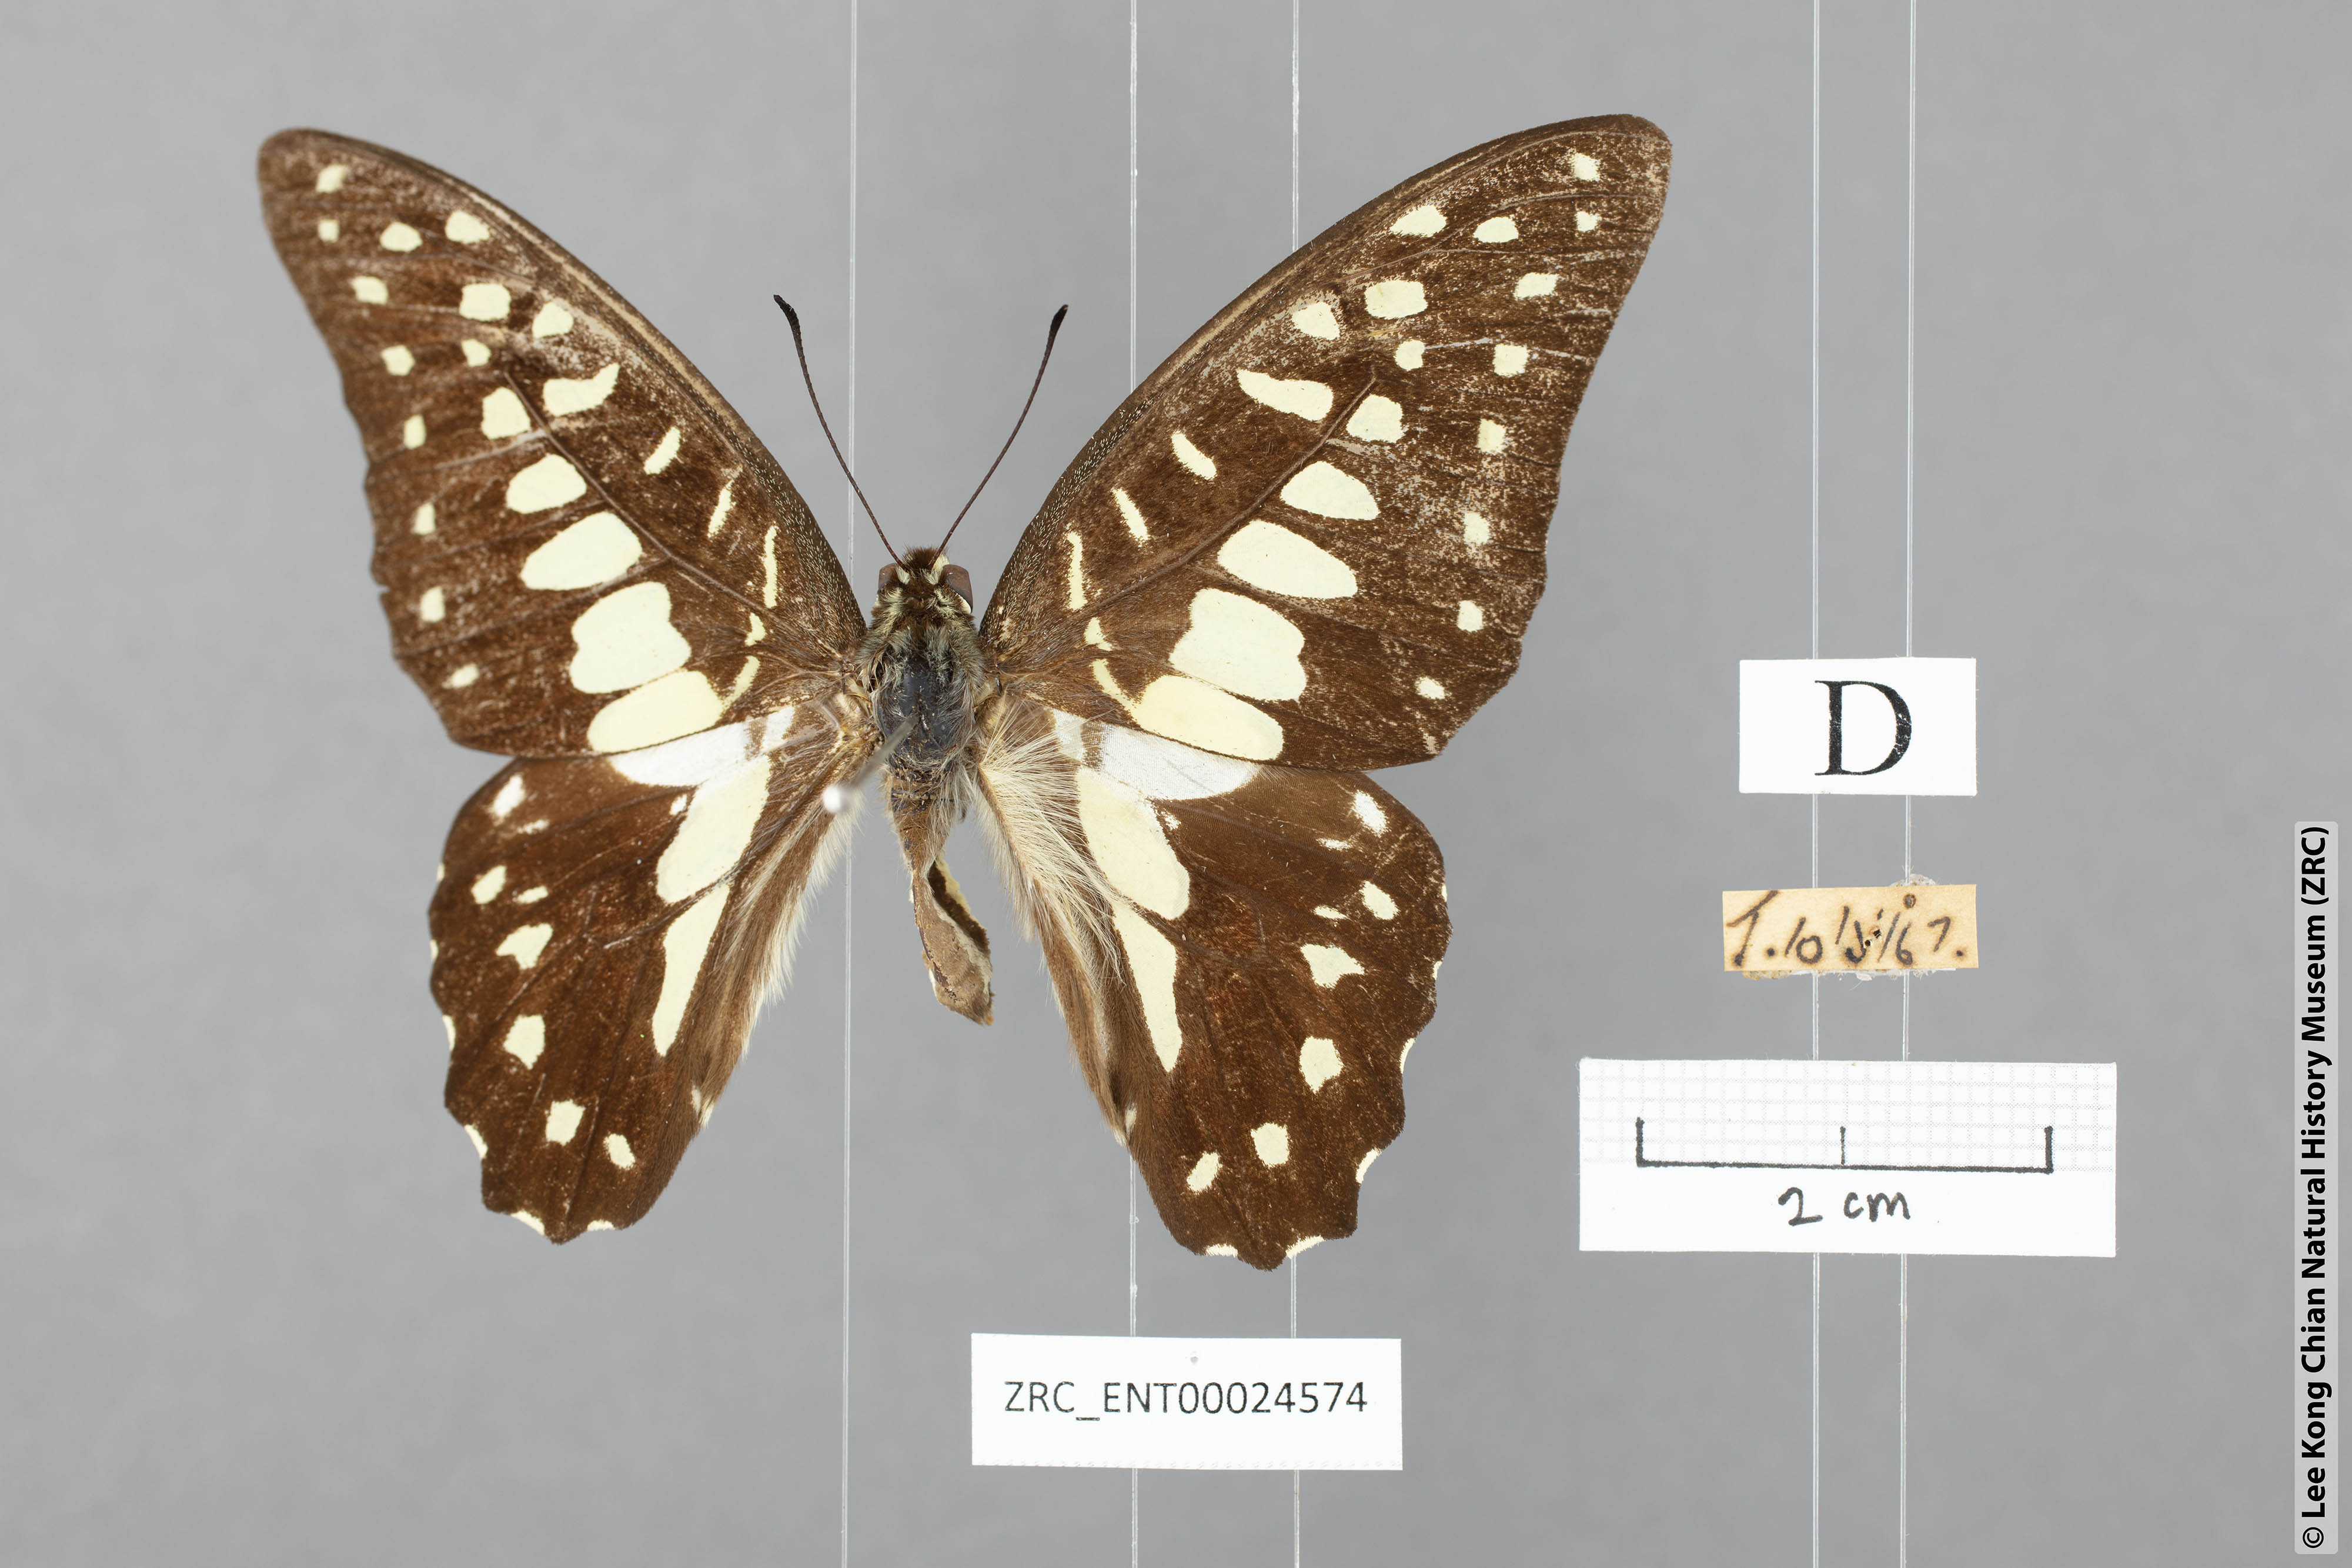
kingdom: Animalia
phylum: Arthropoda
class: Insecta
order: Lepidoptera
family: Papilionidae
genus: Graphium
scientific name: Graphium doson
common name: Common jay
